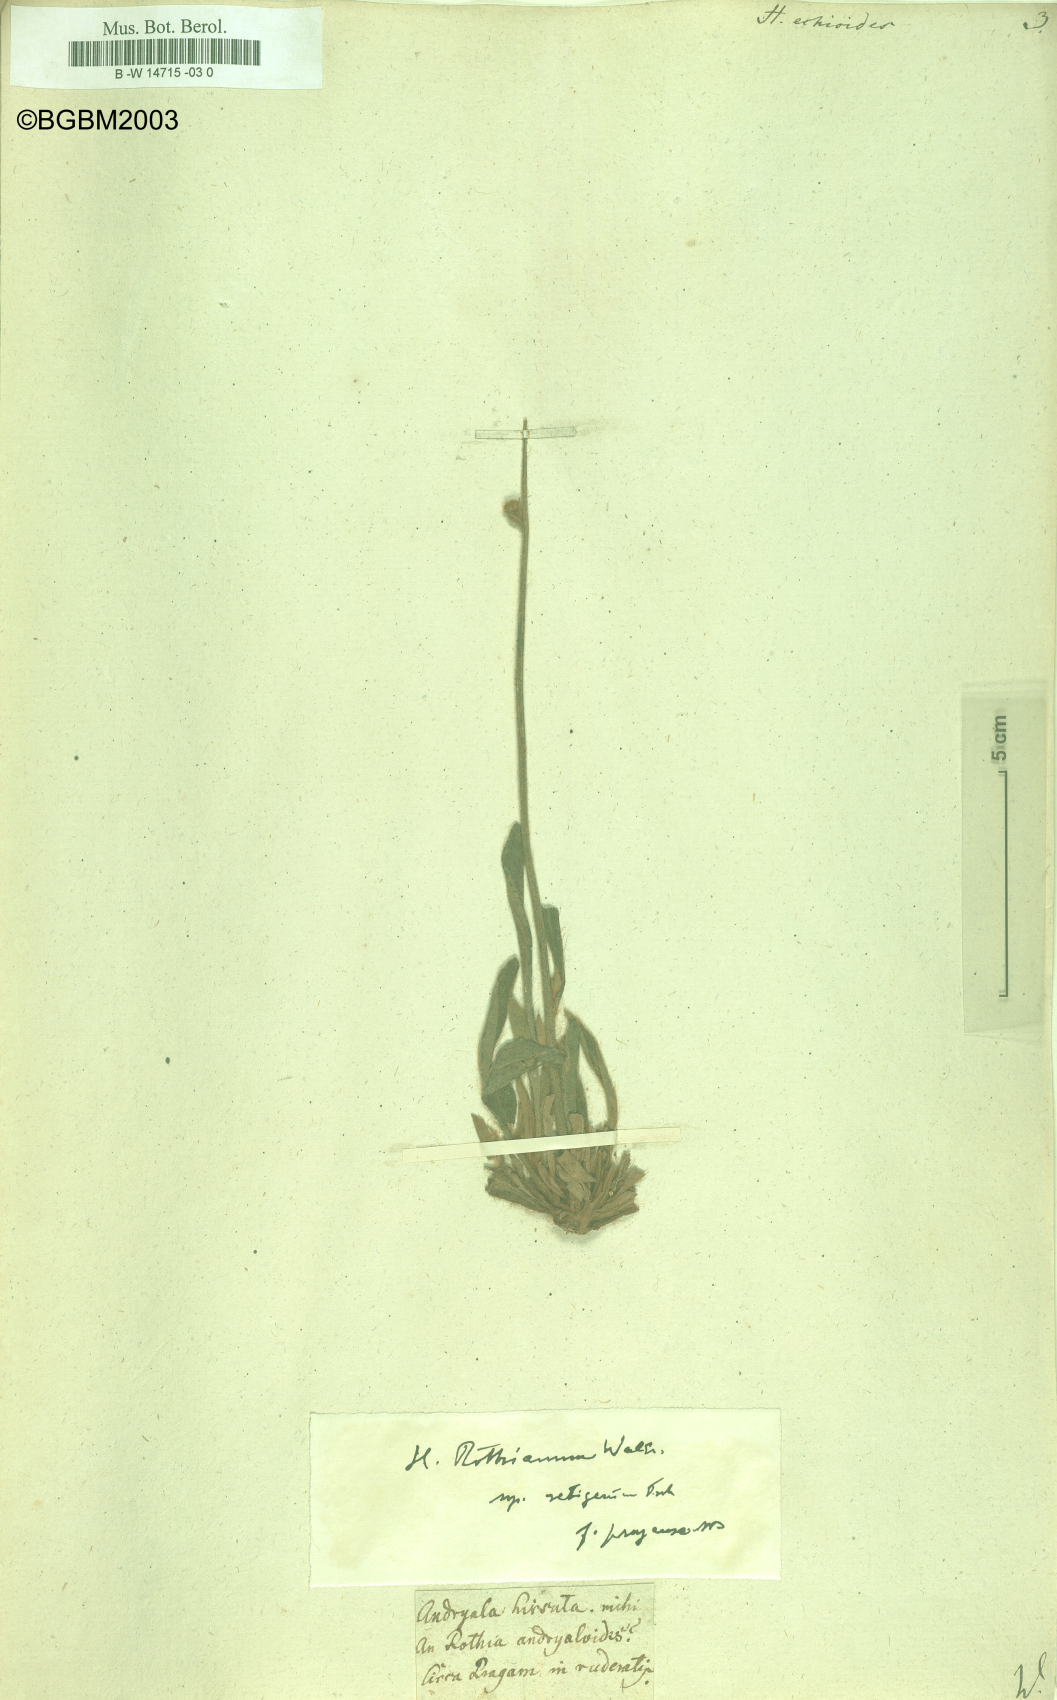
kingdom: Plantae
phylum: Tracheophyta
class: Magnoliopsida
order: Asterales
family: Asteraceae
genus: Pilosella
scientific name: Pilosella echioides
